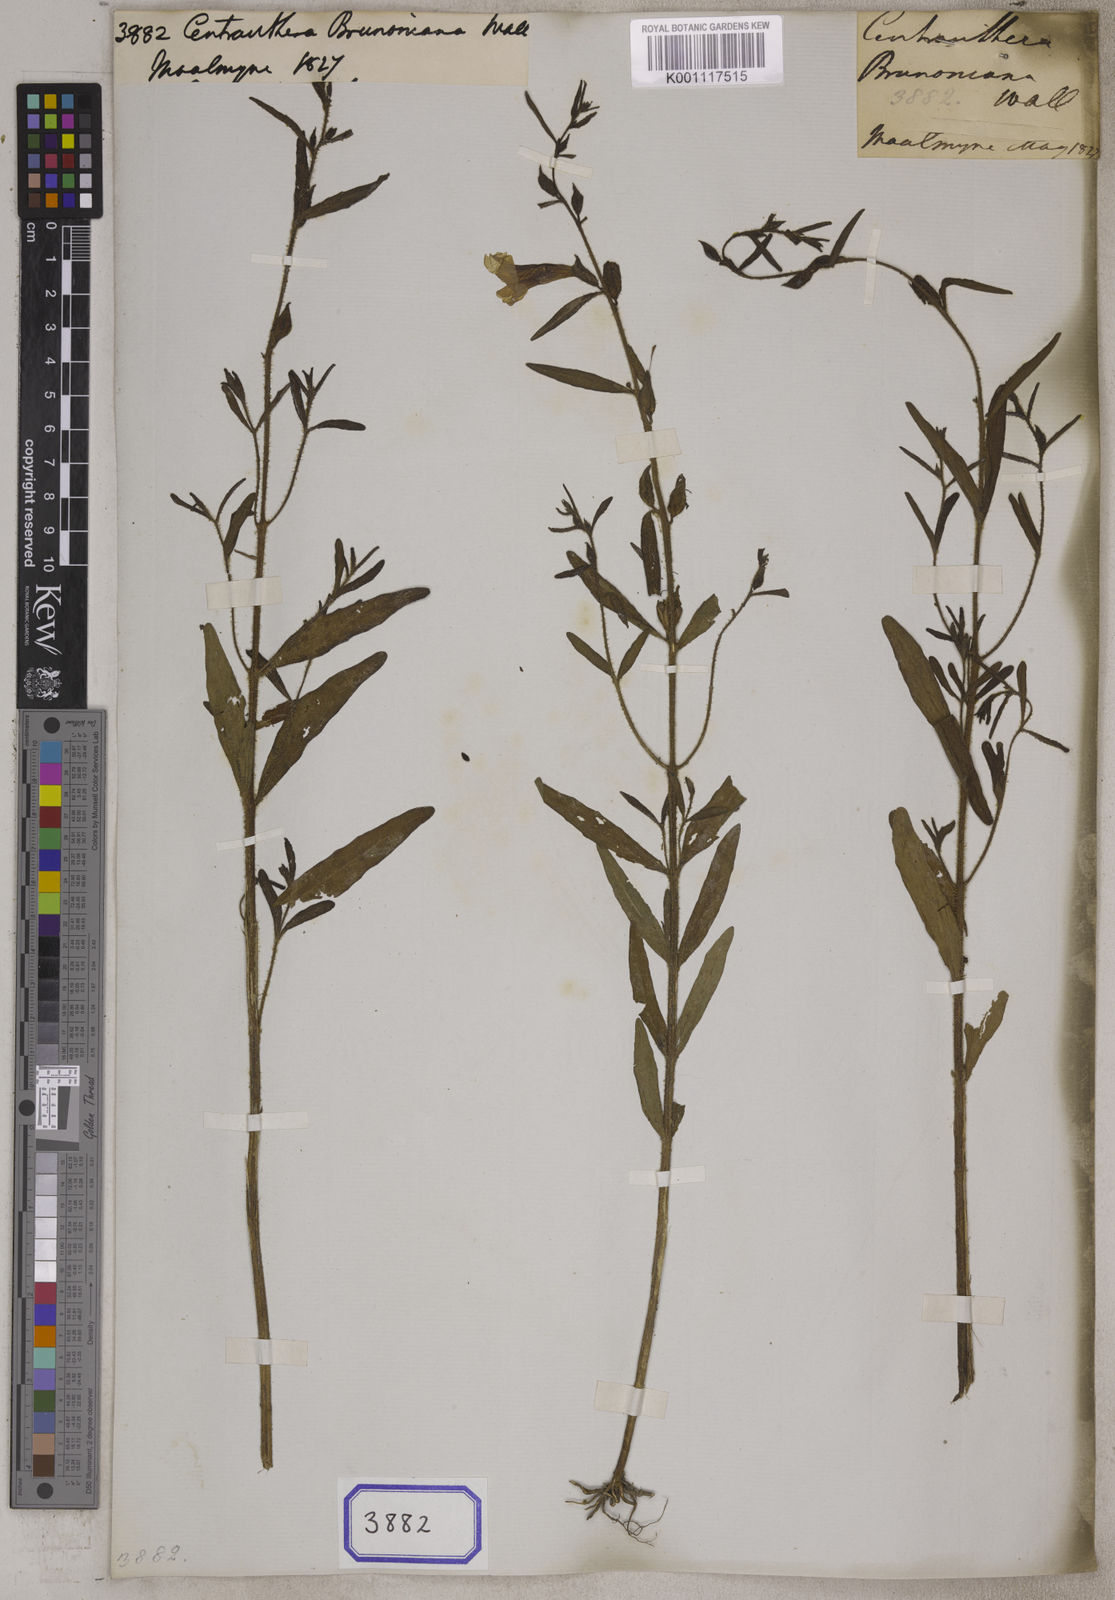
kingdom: Plantae
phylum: Tracheophyta
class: Magnoliopsida
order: Lamiales
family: Orobanchaceae
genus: Centranthera
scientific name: Centranthera
